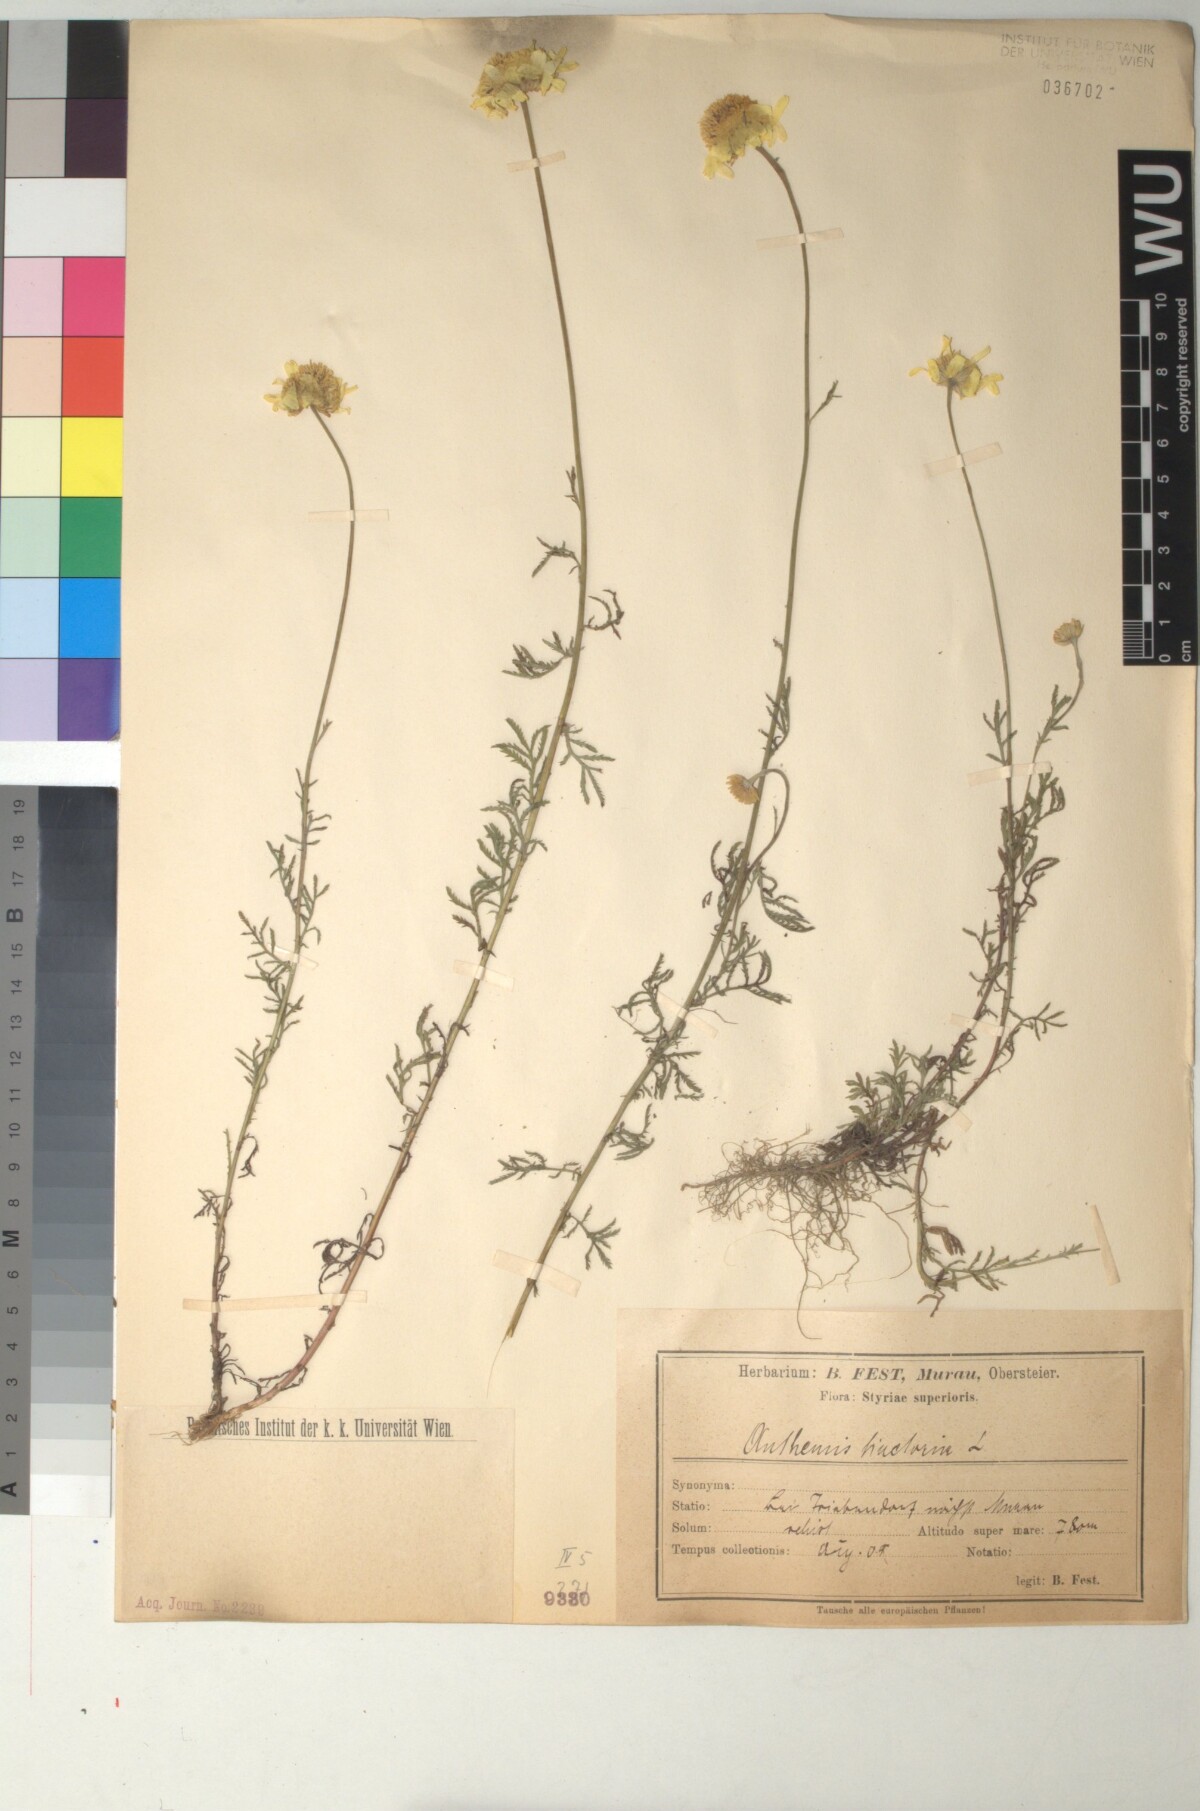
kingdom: Plantae
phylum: Tracheophyta
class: Magnoliopsida
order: Asterales
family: Asteraceae
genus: Cota
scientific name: Cota tinctoria
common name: Golden chamomile
